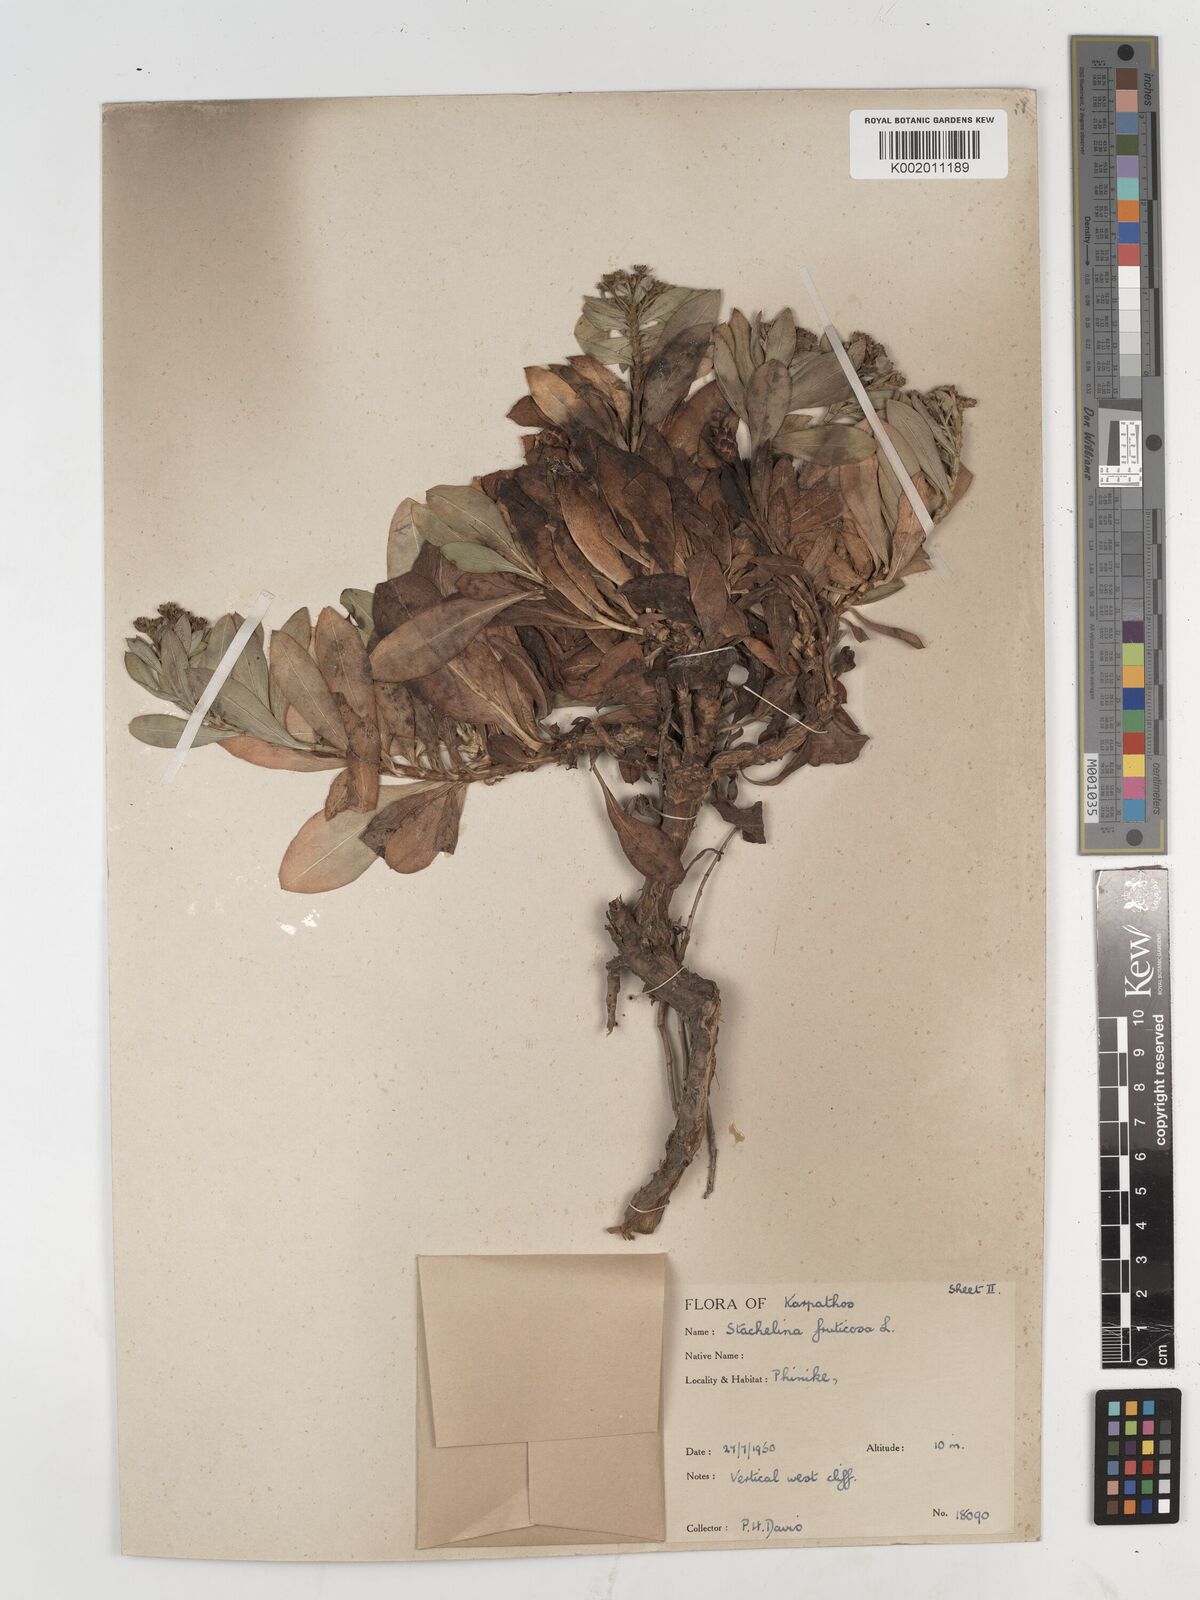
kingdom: Plantae
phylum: Tracheophyta
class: Magnoliopsida
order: Asterales
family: Asteraceae
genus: Hirtellina
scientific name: Hirtellina fruticosa
